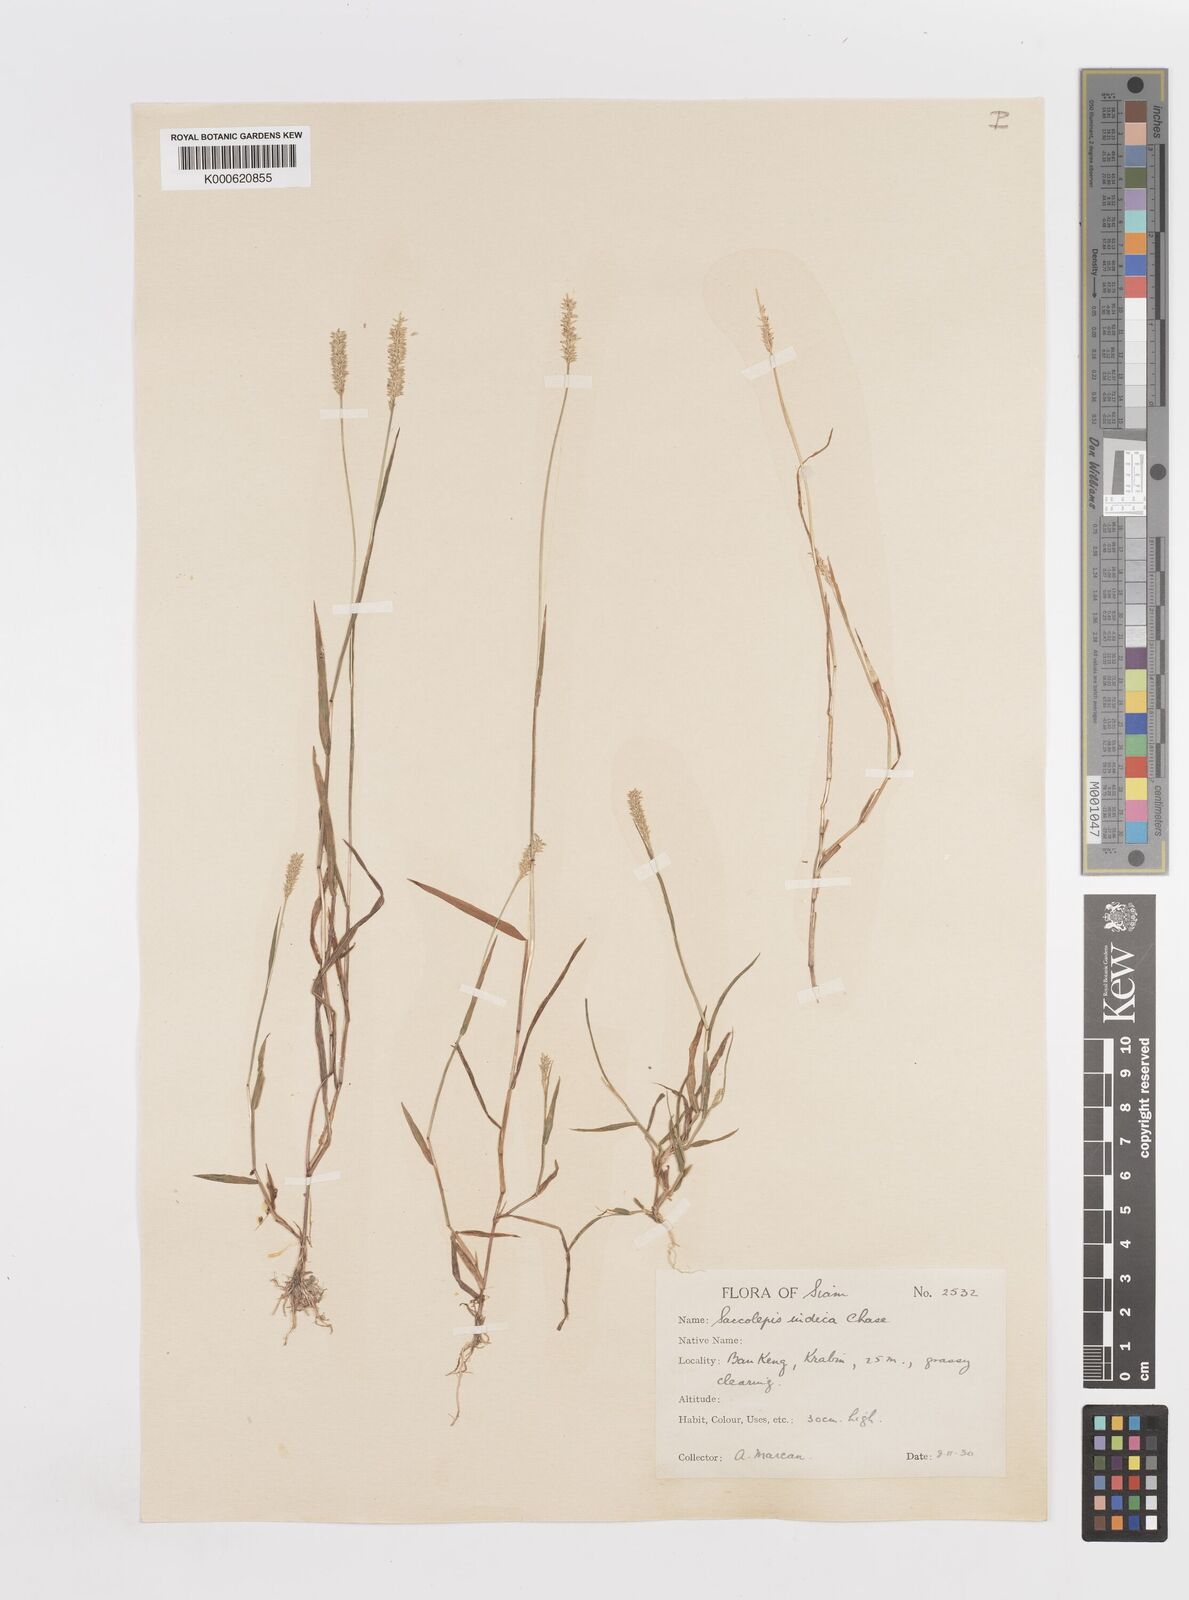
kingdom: Plantae
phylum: Tracheophyta
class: Liliopsida
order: Poales
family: Poaceae
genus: Sacciolepis
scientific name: Sacciolepis indica
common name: Glenwoodgrass
